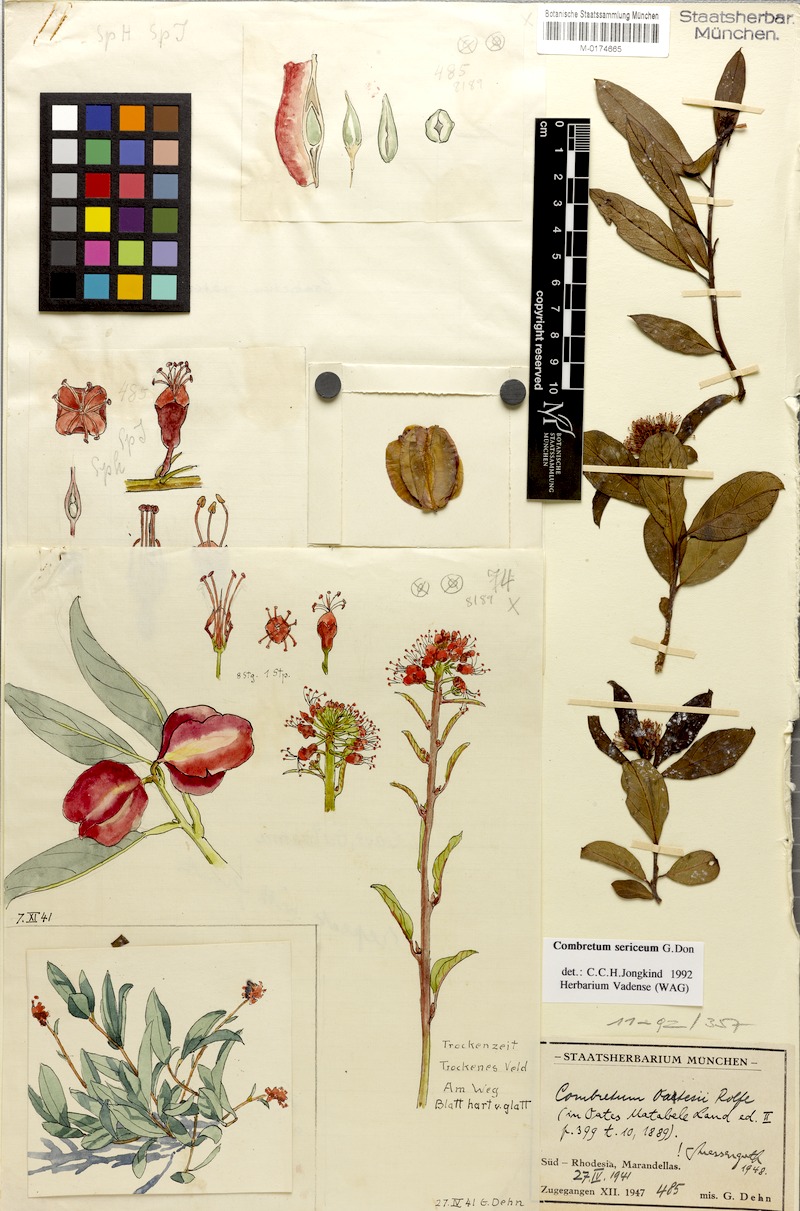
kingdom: Plantae
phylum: Tracheophyta
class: Magnoliopsida
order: Myrtales
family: Combretaceae
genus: Combretum
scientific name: Combretum sericeum
